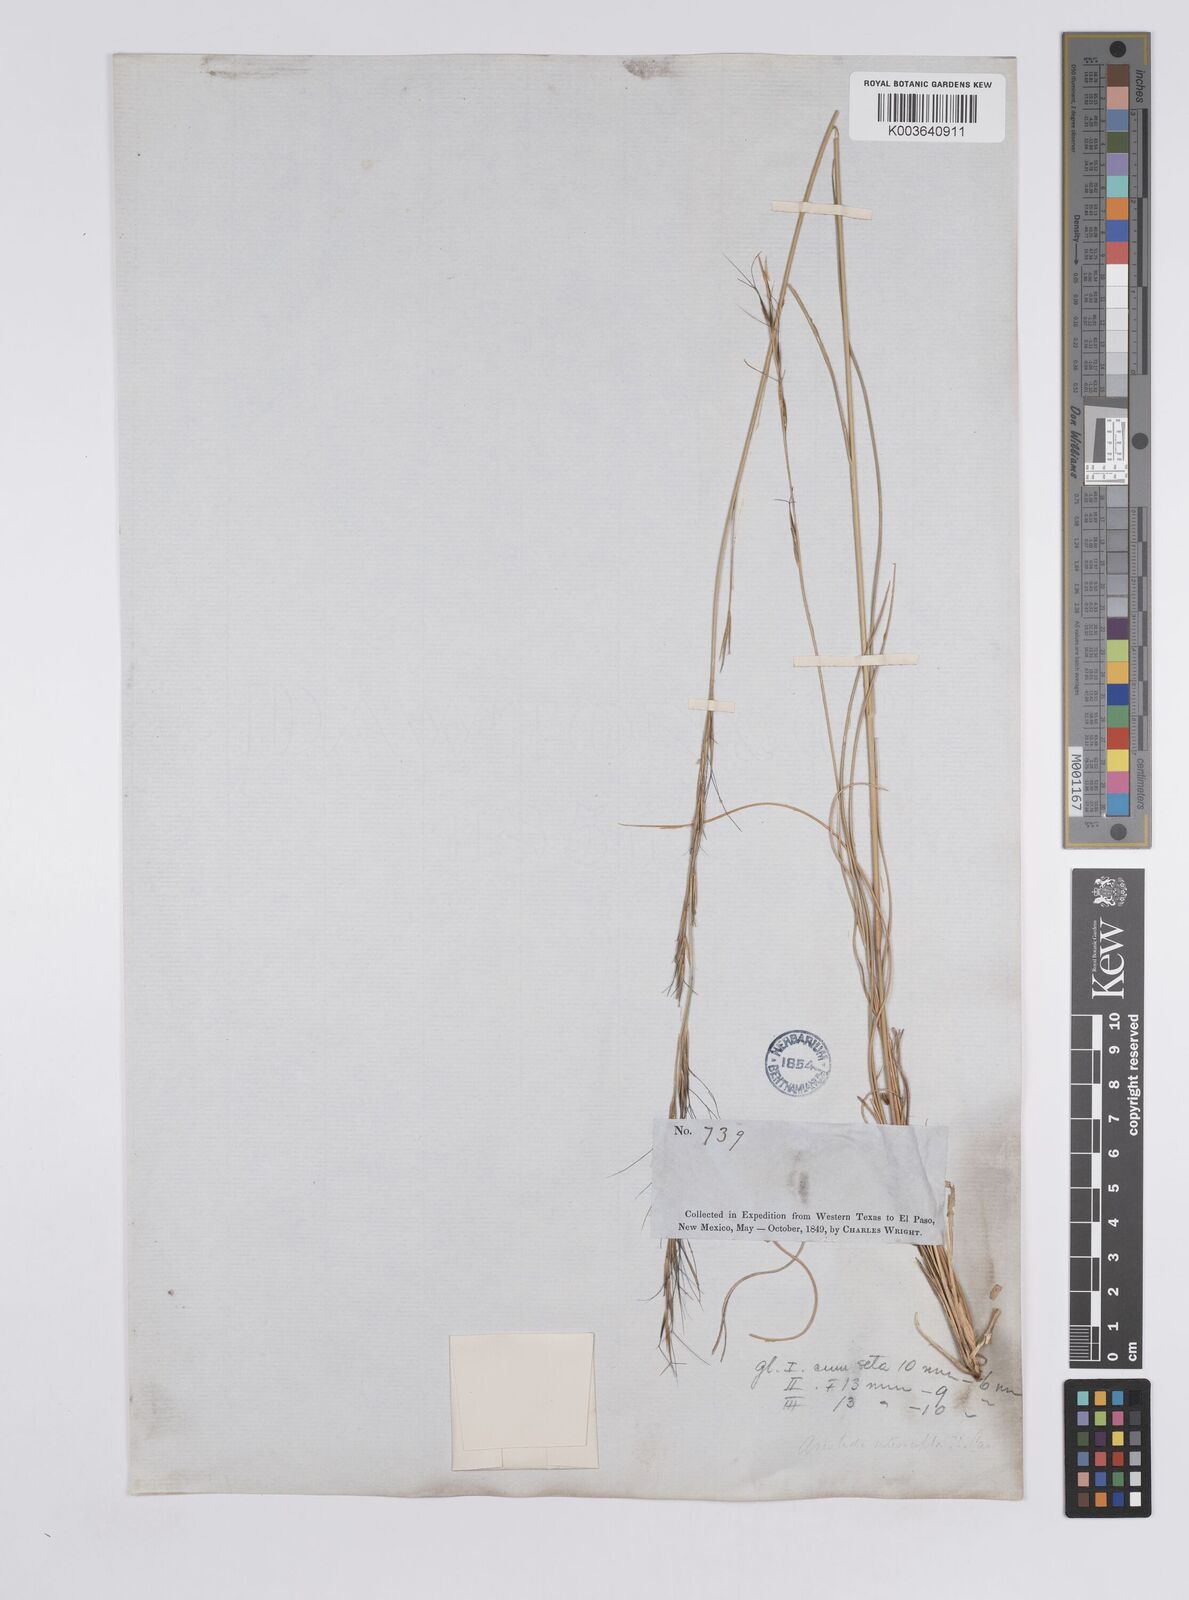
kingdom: Plantae
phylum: Tracheophyta
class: Liliopsida
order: Poales
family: Poaceae
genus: Aristida
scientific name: Aristida purpurea
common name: Purple threeawn
